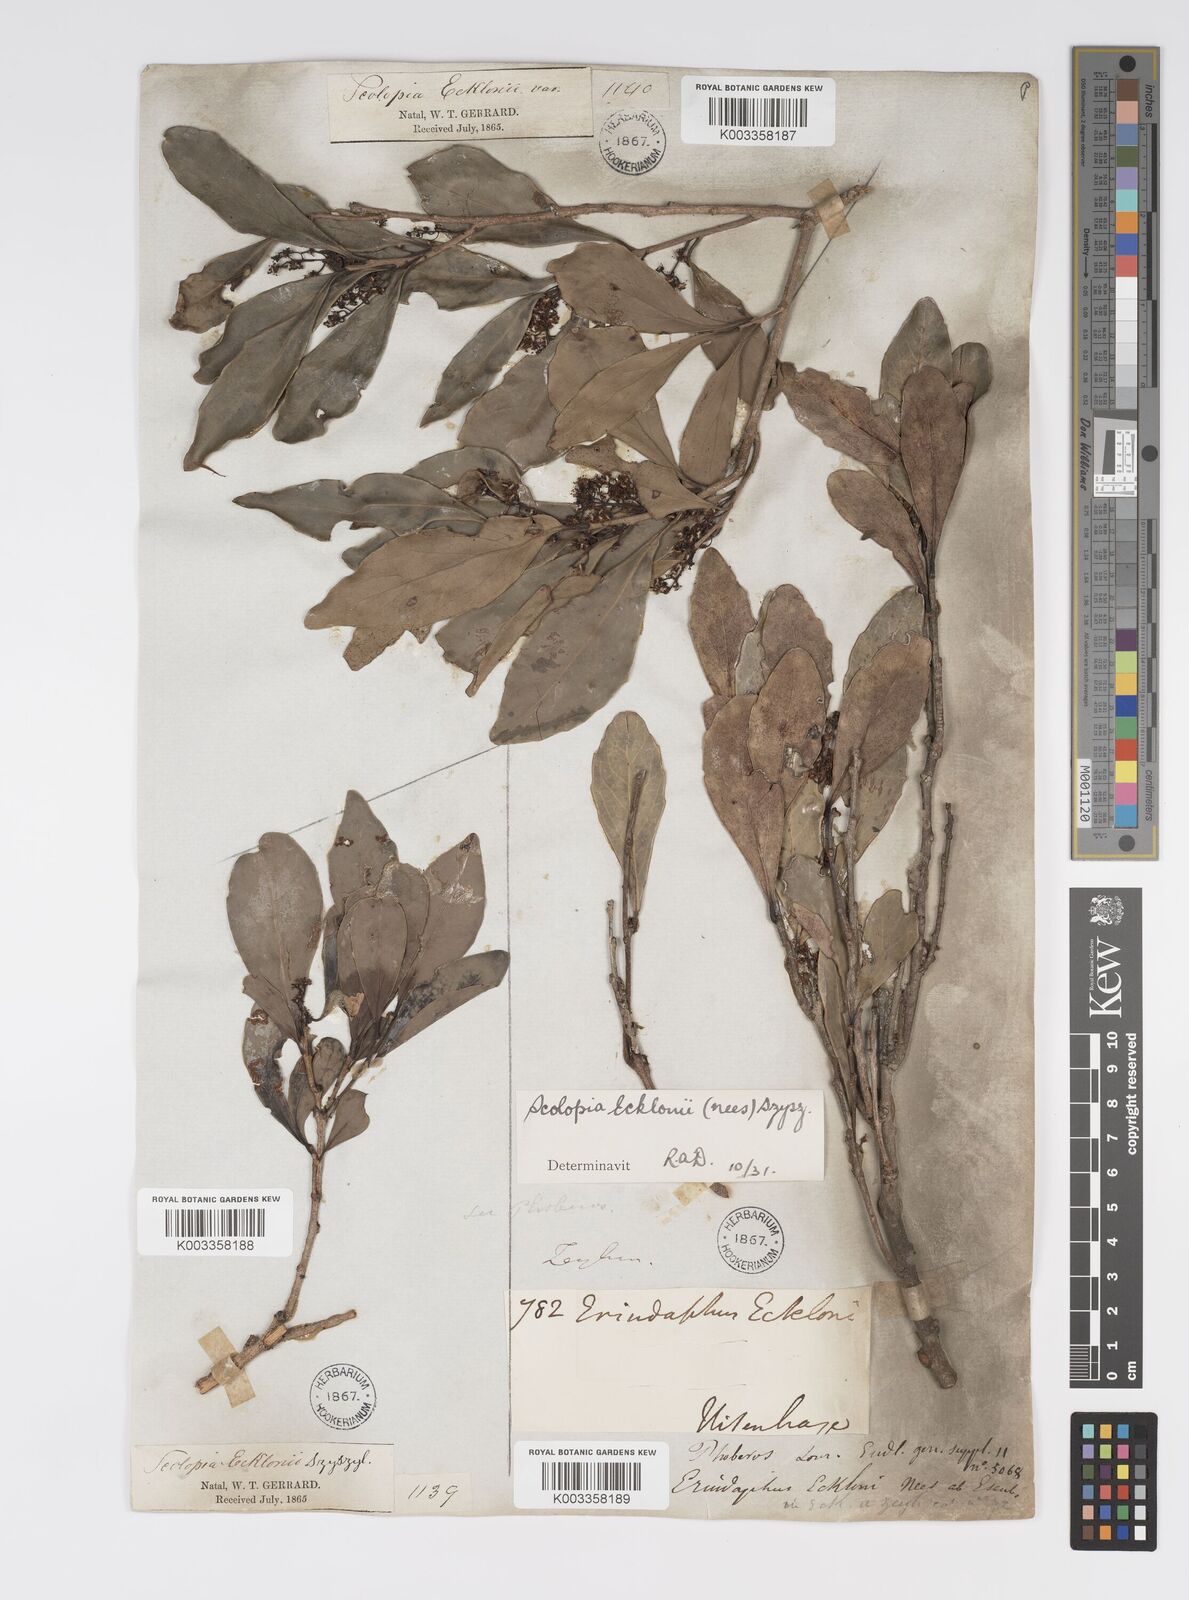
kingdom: Plantae
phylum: Tracheophyta
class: Magnoliopsida
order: Malpighiales
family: Salicaceae
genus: Scolopia
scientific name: Scolopia zeyheri
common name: Thorn pear
